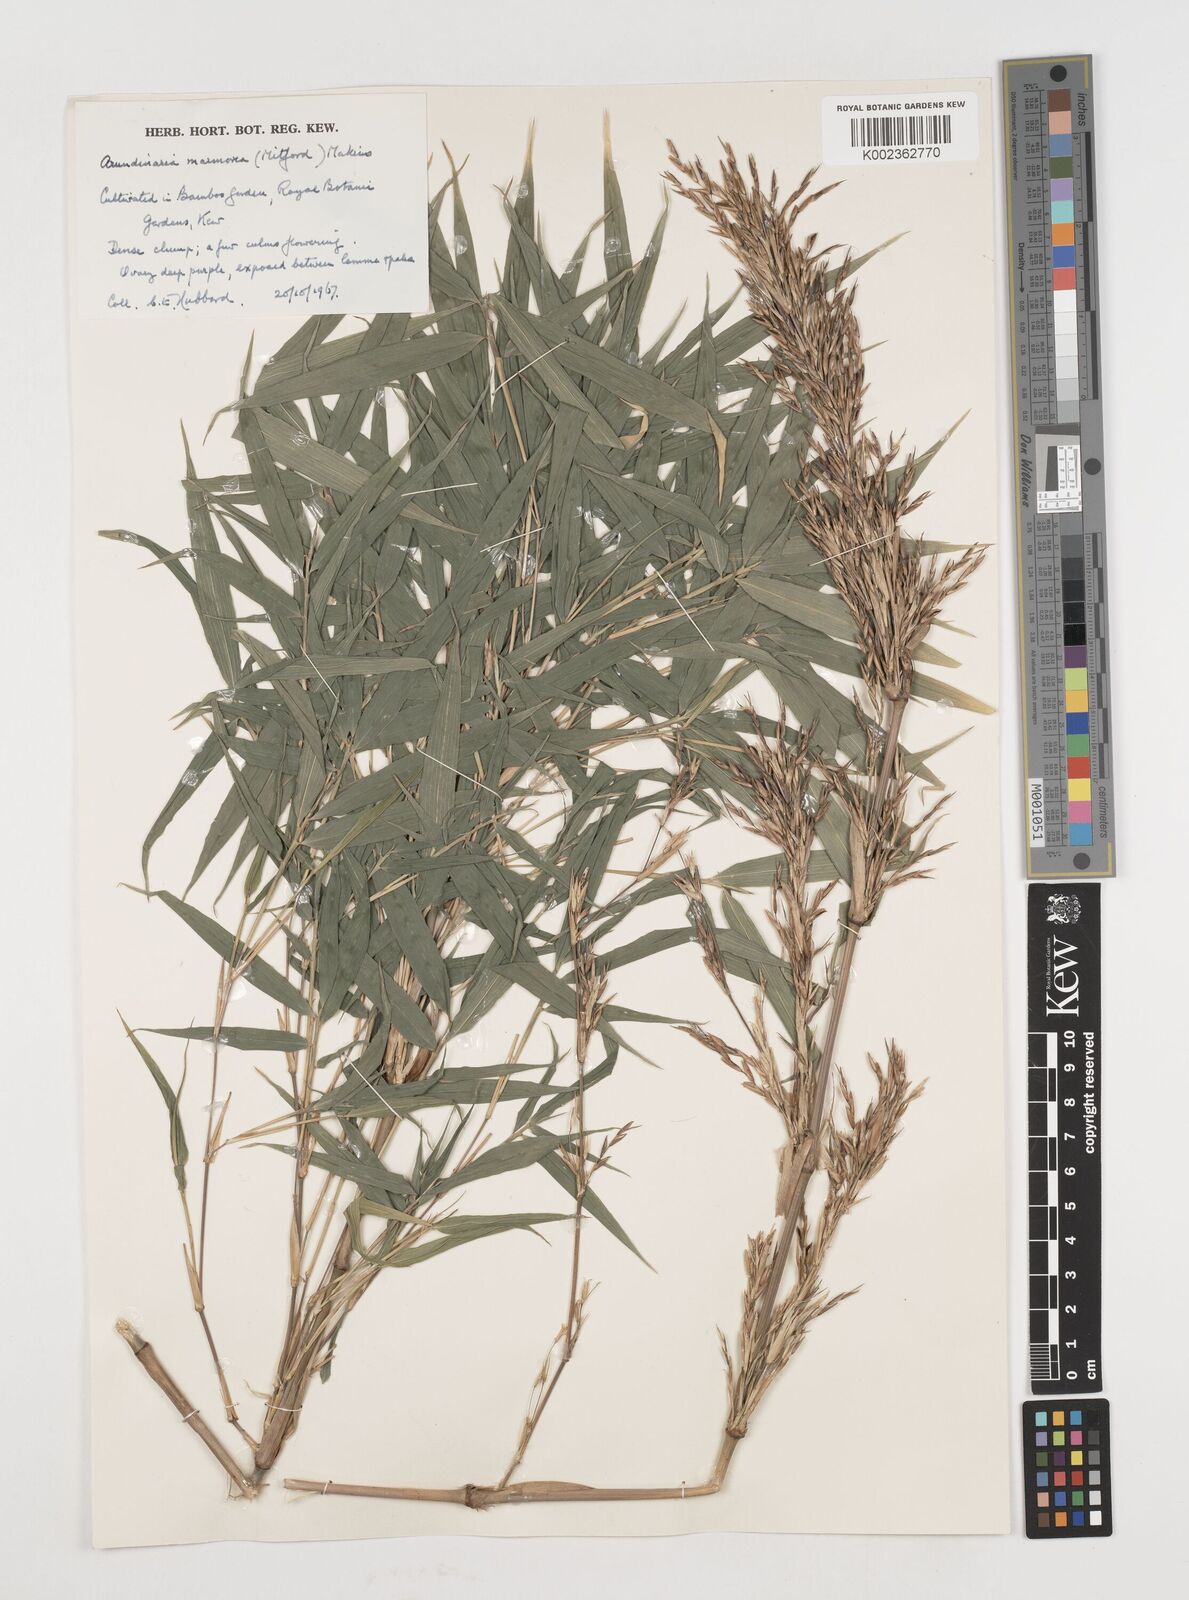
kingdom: Plantae
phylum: Tracheophyta
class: Liliopsida
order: Poales
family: Poaceae
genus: Chimonobambusa
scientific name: Chimonobambusa marmorea
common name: Marbled bamboo
